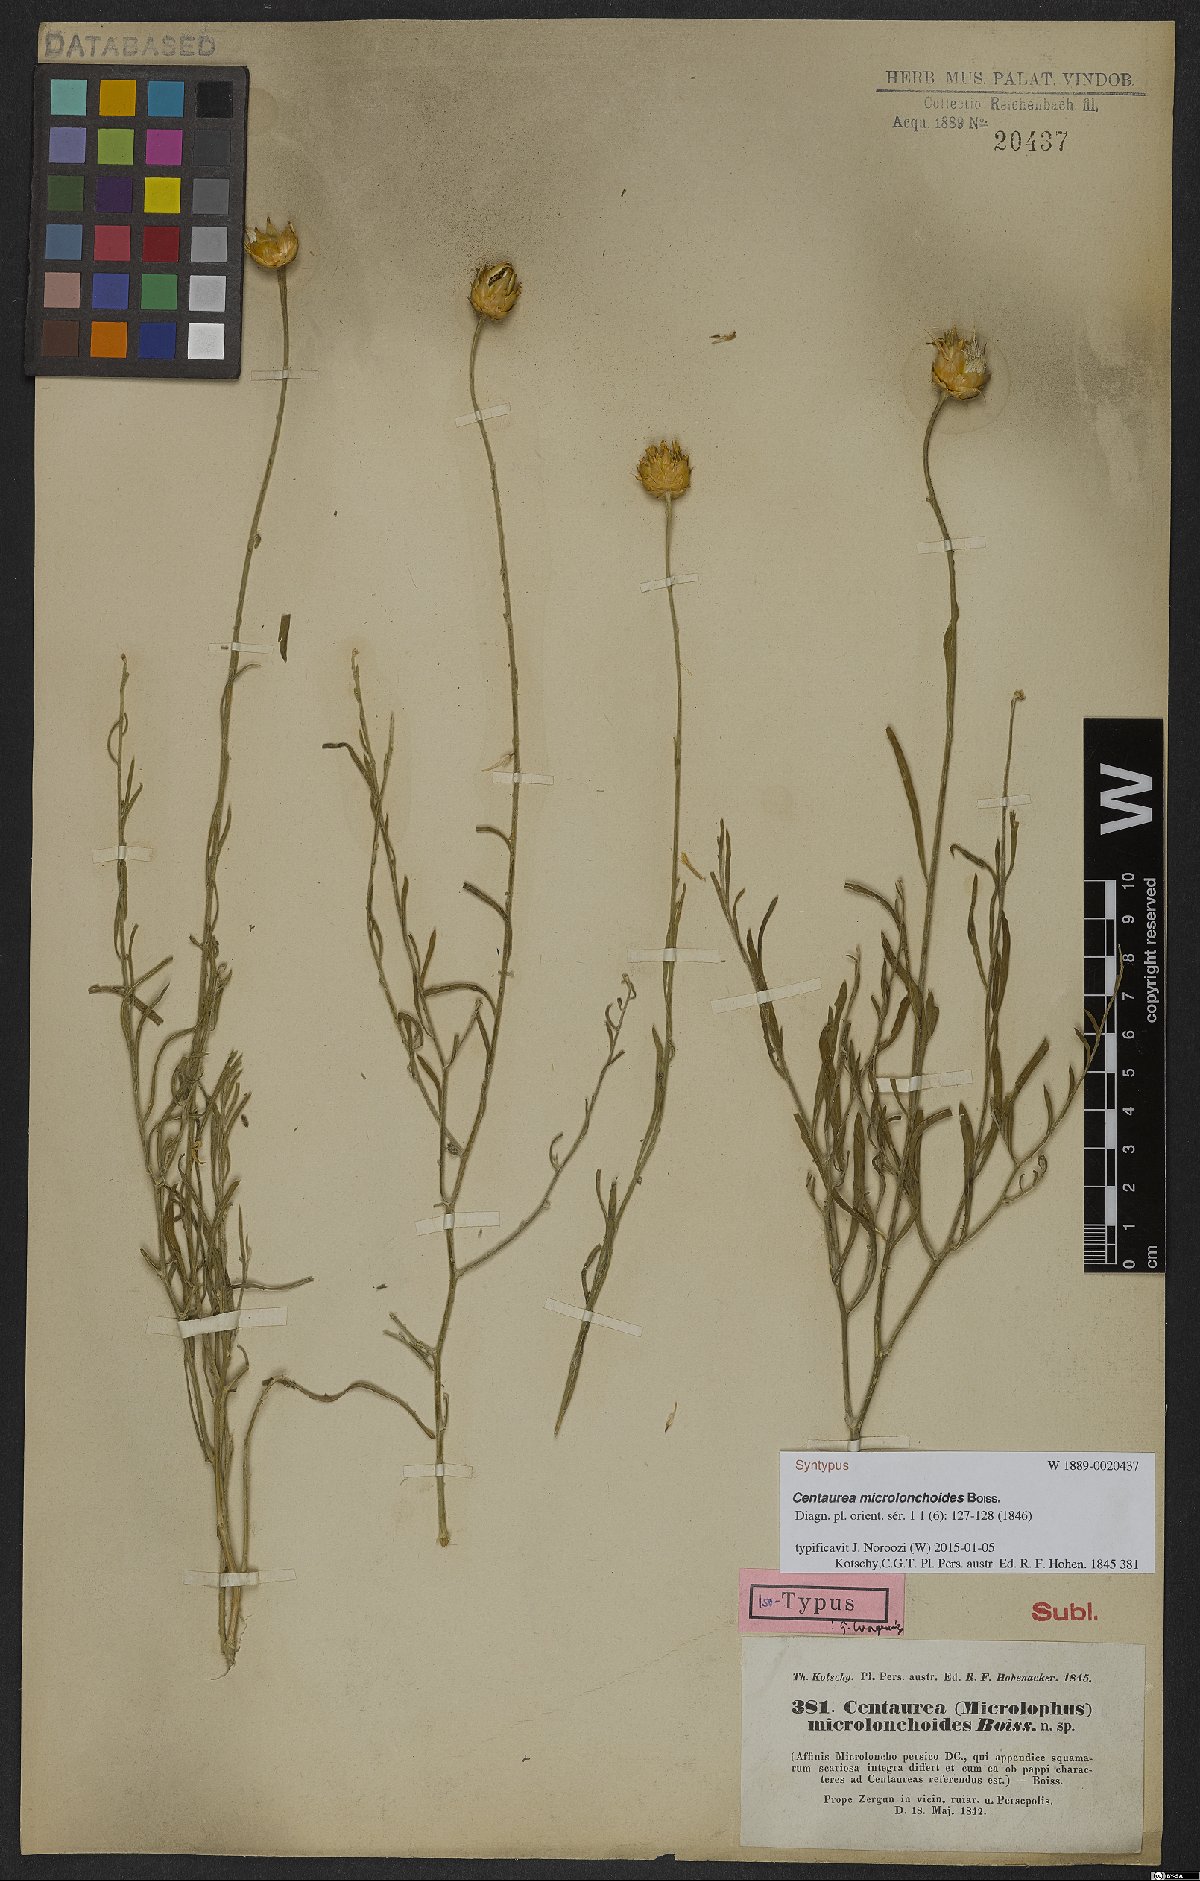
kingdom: Plantae
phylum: Tracheophyta
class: Magnoliopsida
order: Asterales
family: Asteraceae
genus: Centaurea
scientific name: Centaurea microlonchoides
